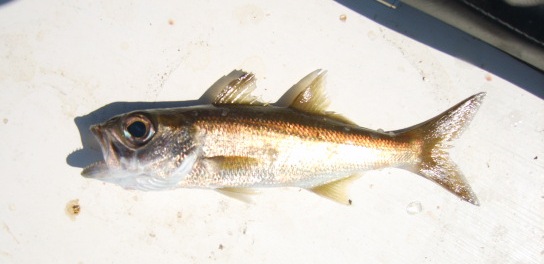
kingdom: Animalia
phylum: Chordata
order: Perciformes
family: Scombropidae
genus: Scombrops
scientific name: Scombrops boops
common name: Gnomefish
